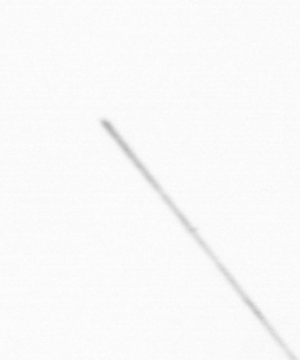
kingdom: Chromista
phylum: Ochrophyta
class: Bacillariophyceae
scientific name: Bacillariophyceae
